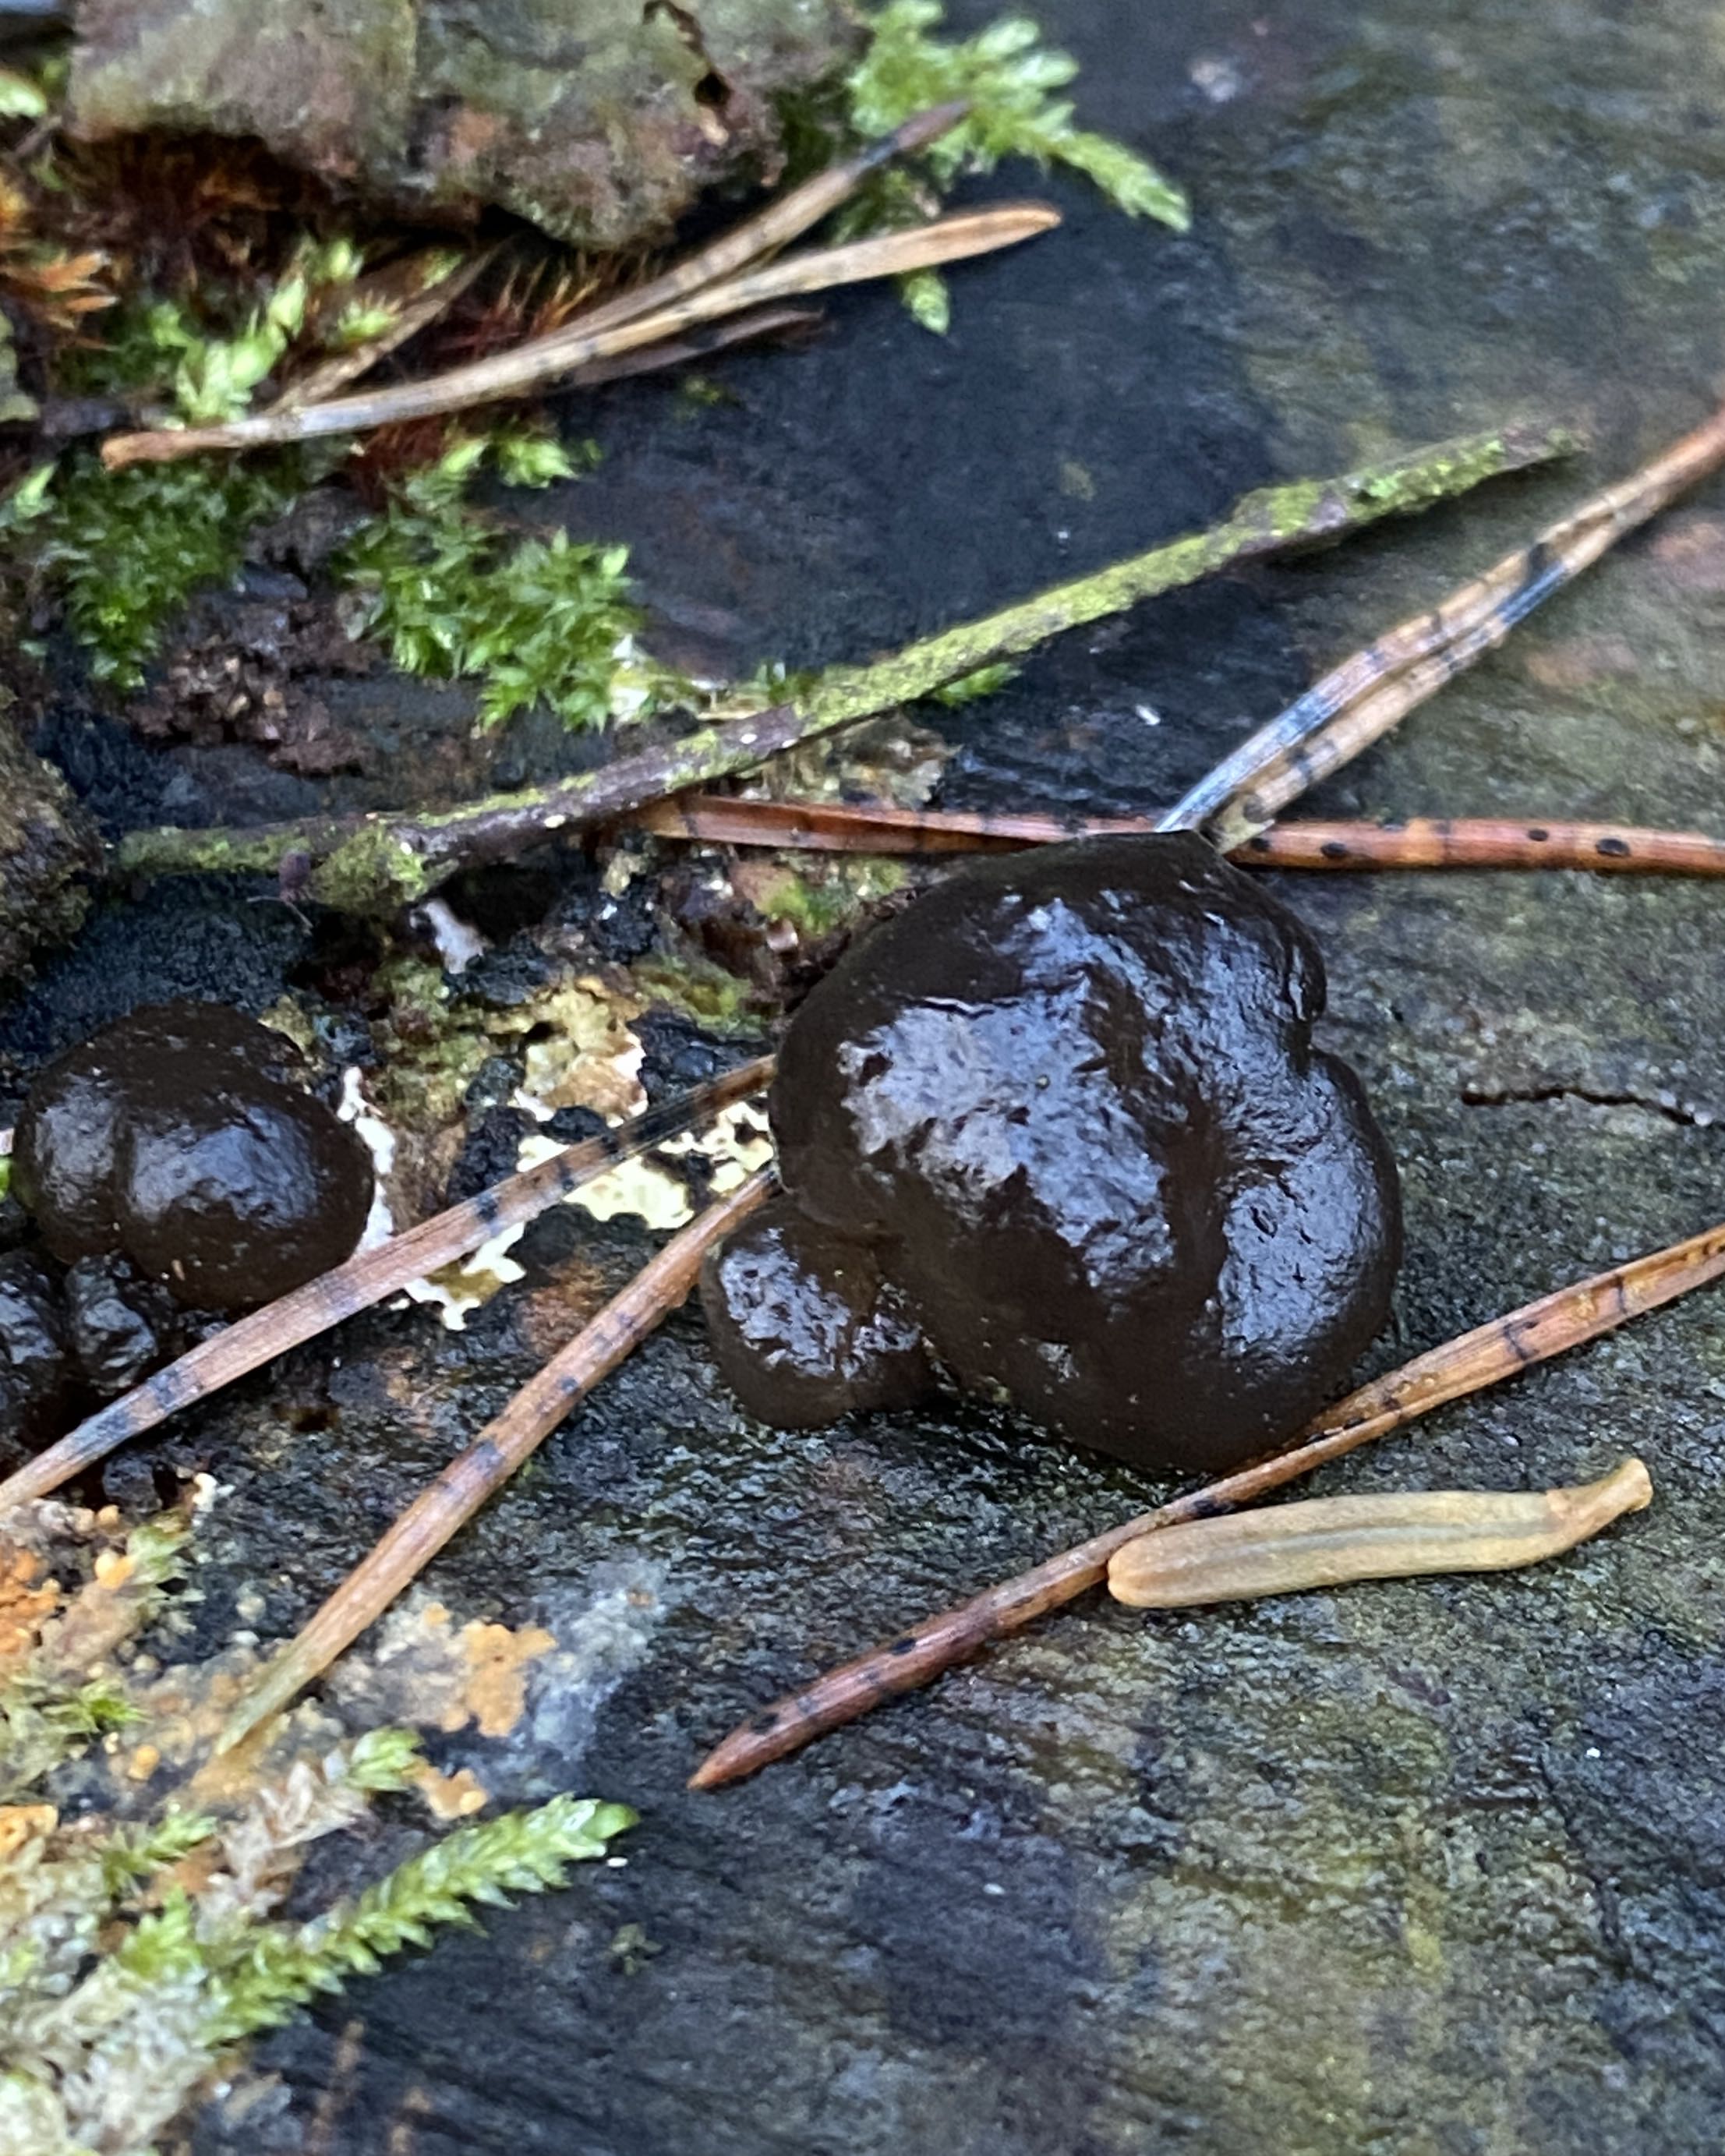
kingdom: Fungi
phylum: Basidiomycota
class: Agaricomycetes
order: Auriculariales
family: Auriculariaceae
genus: Exidia
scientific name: Exidia nigricans
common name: almindelig bævretop
